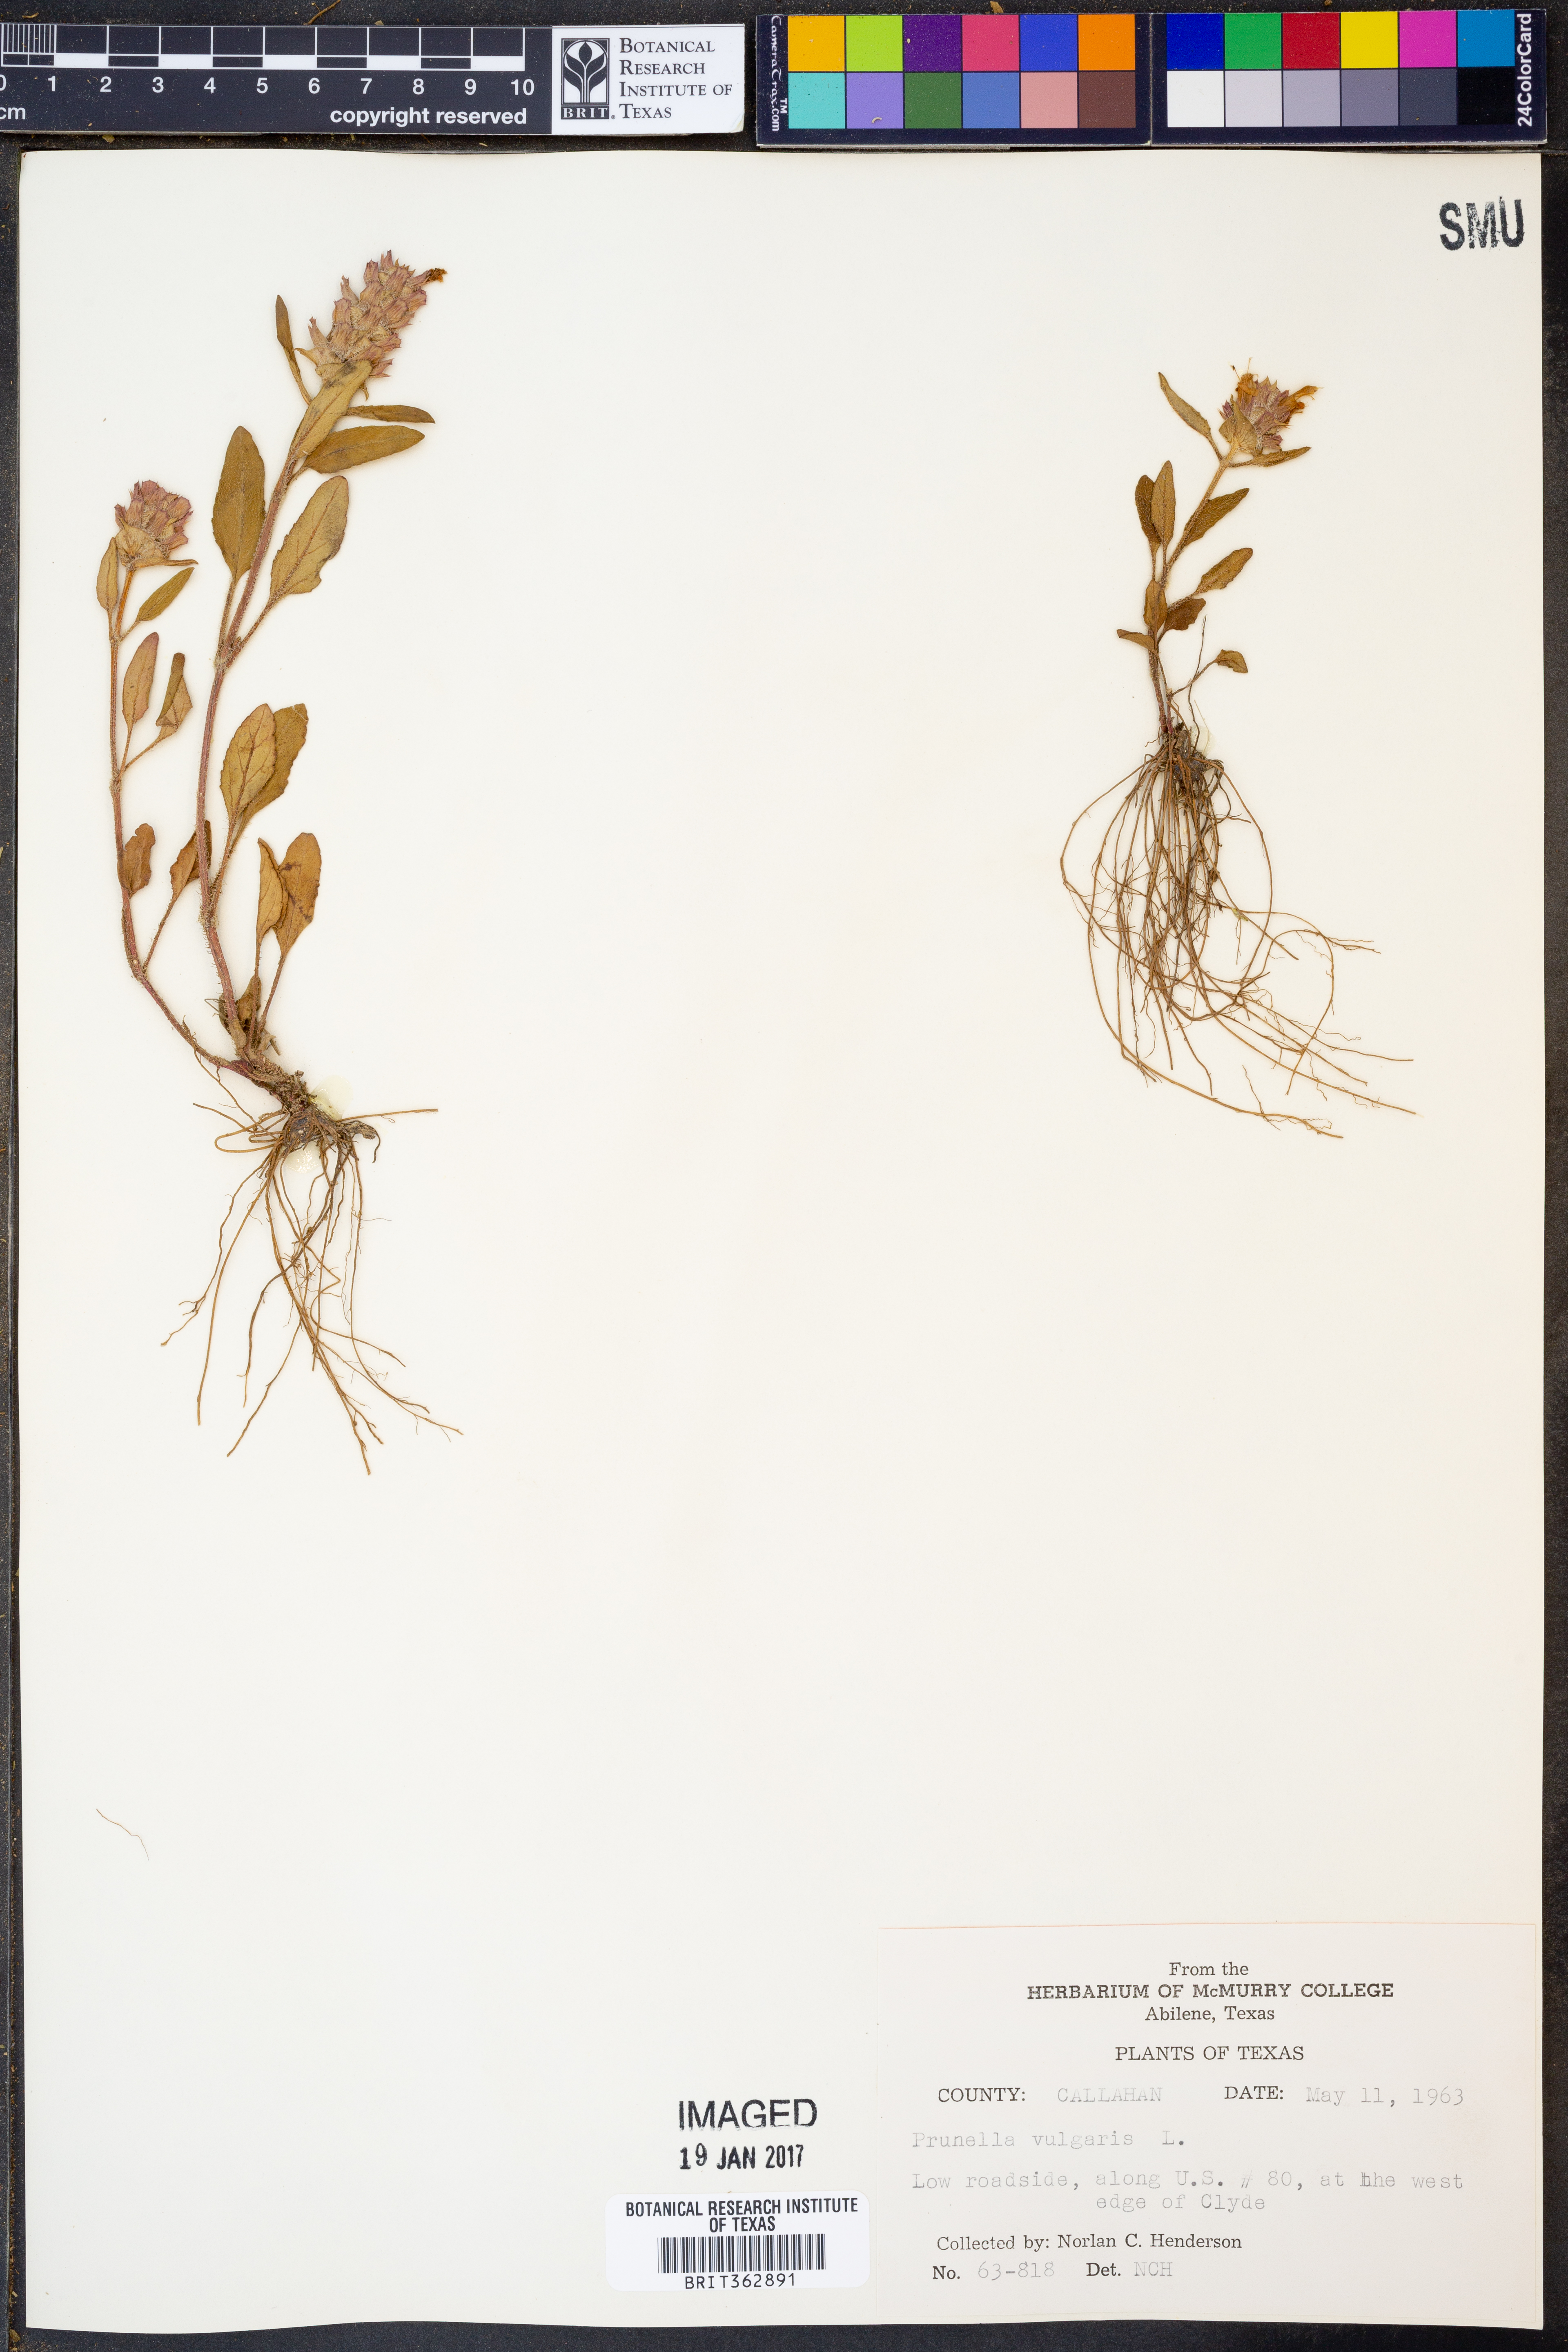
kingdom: Plantae
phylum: Tracheophyta
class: Magnoliopsida
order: Lamiales
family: Lamiaceae
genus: Prunella
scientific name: Prunella vulgaris
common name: Heal-all
